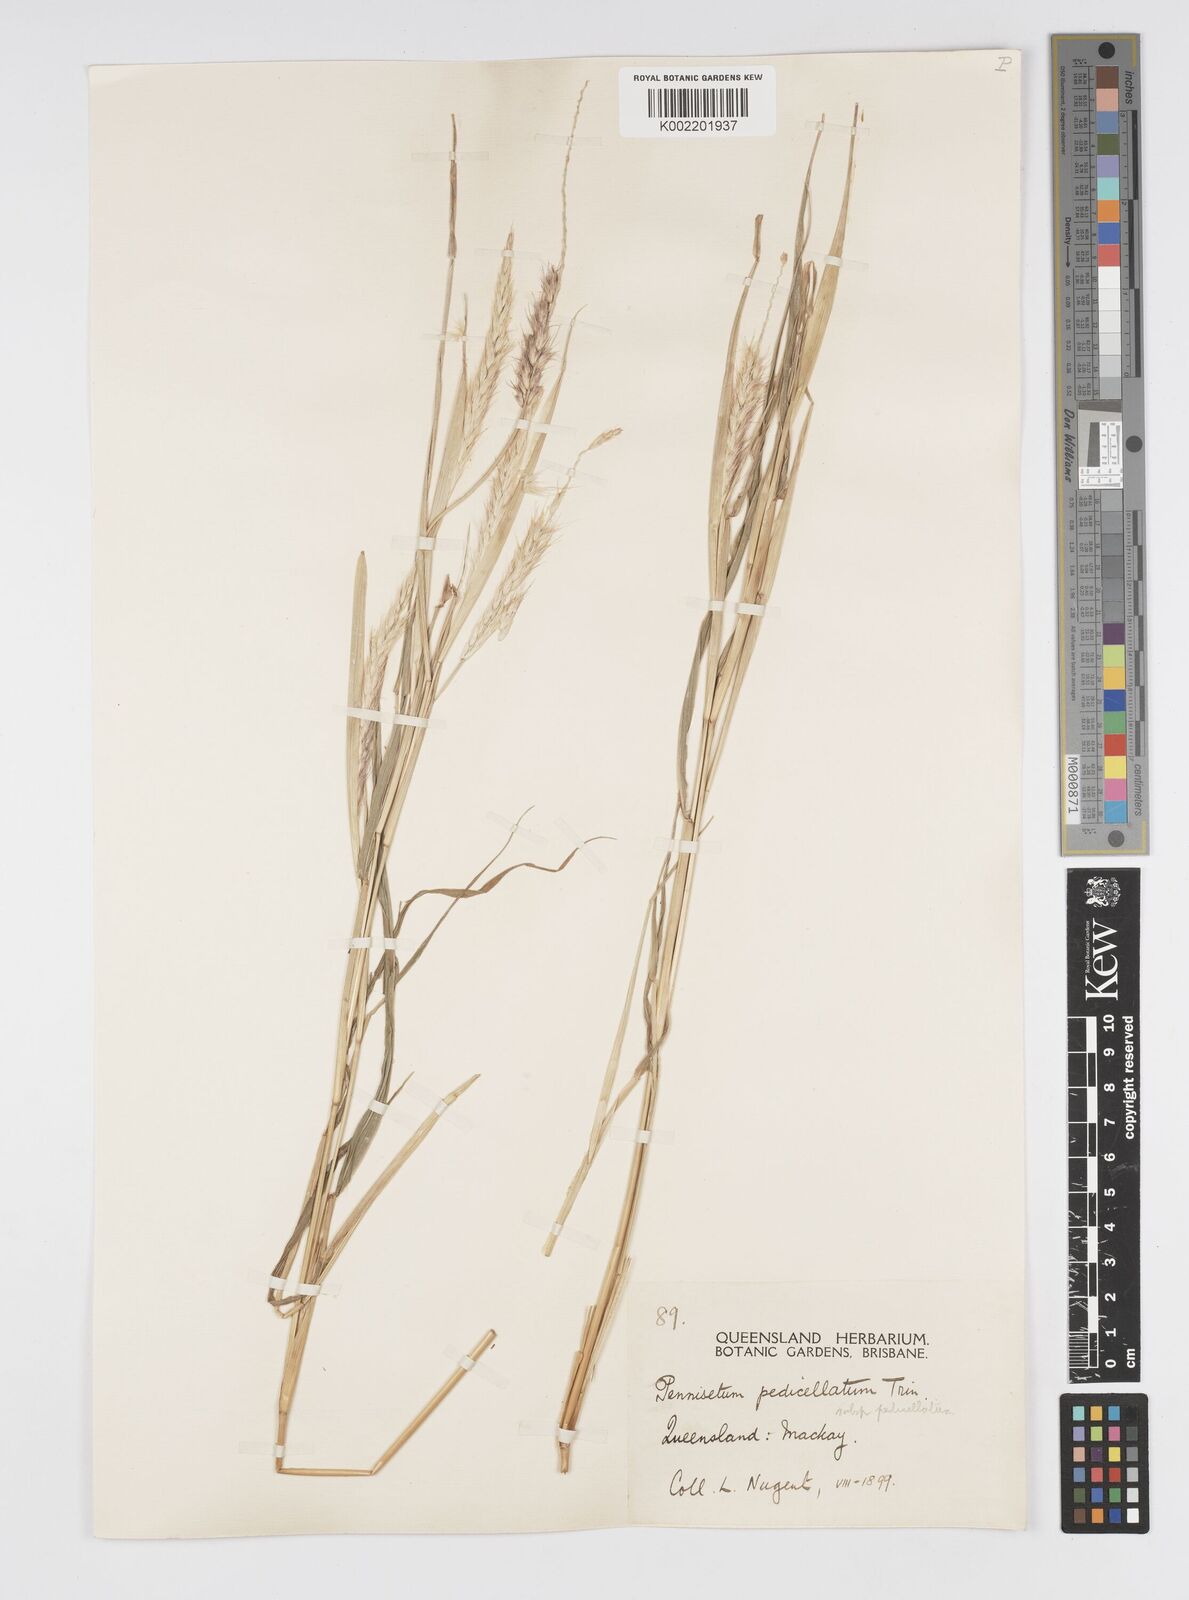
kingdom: Plantae
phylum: Tracheophyta
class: Liliopsida
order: Poales
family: Poaceae
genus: Cenchrus
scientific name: Cenchrus pedicellatus
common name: Hairy fountain grass
